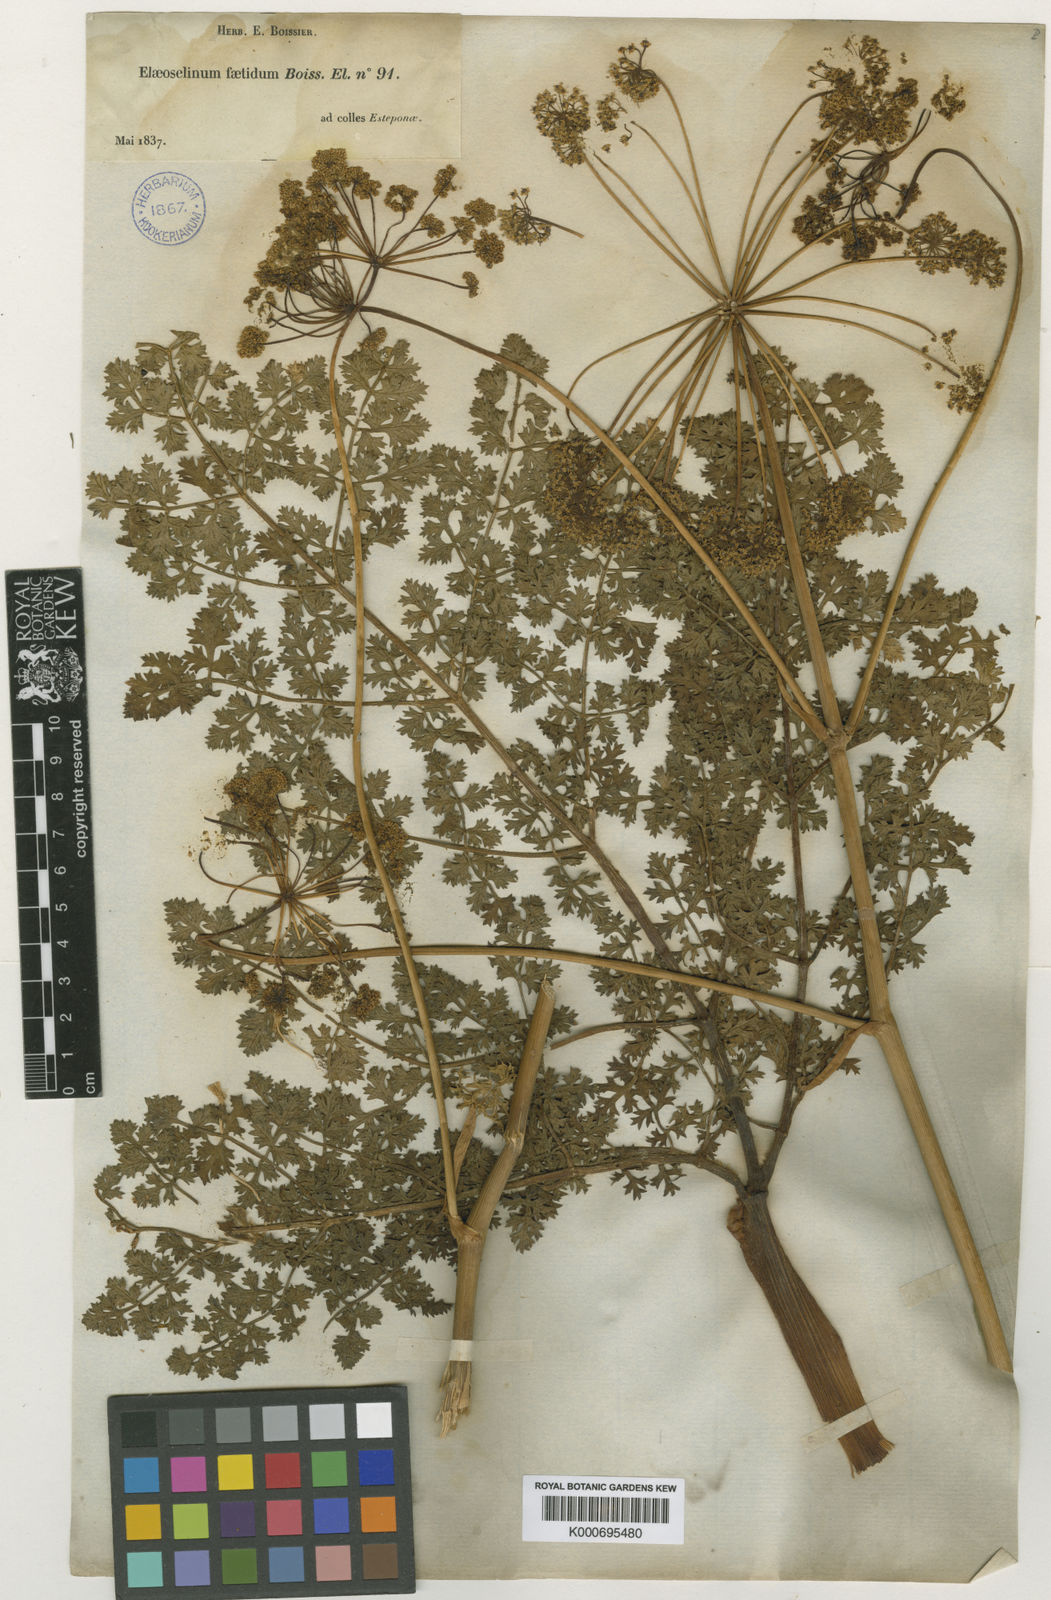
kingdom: Plantae
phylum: Tracheophyta
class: Magnoliopsida
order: Apiales
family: Apiaceae
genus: Thapsia
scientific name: Thapsia foetida
